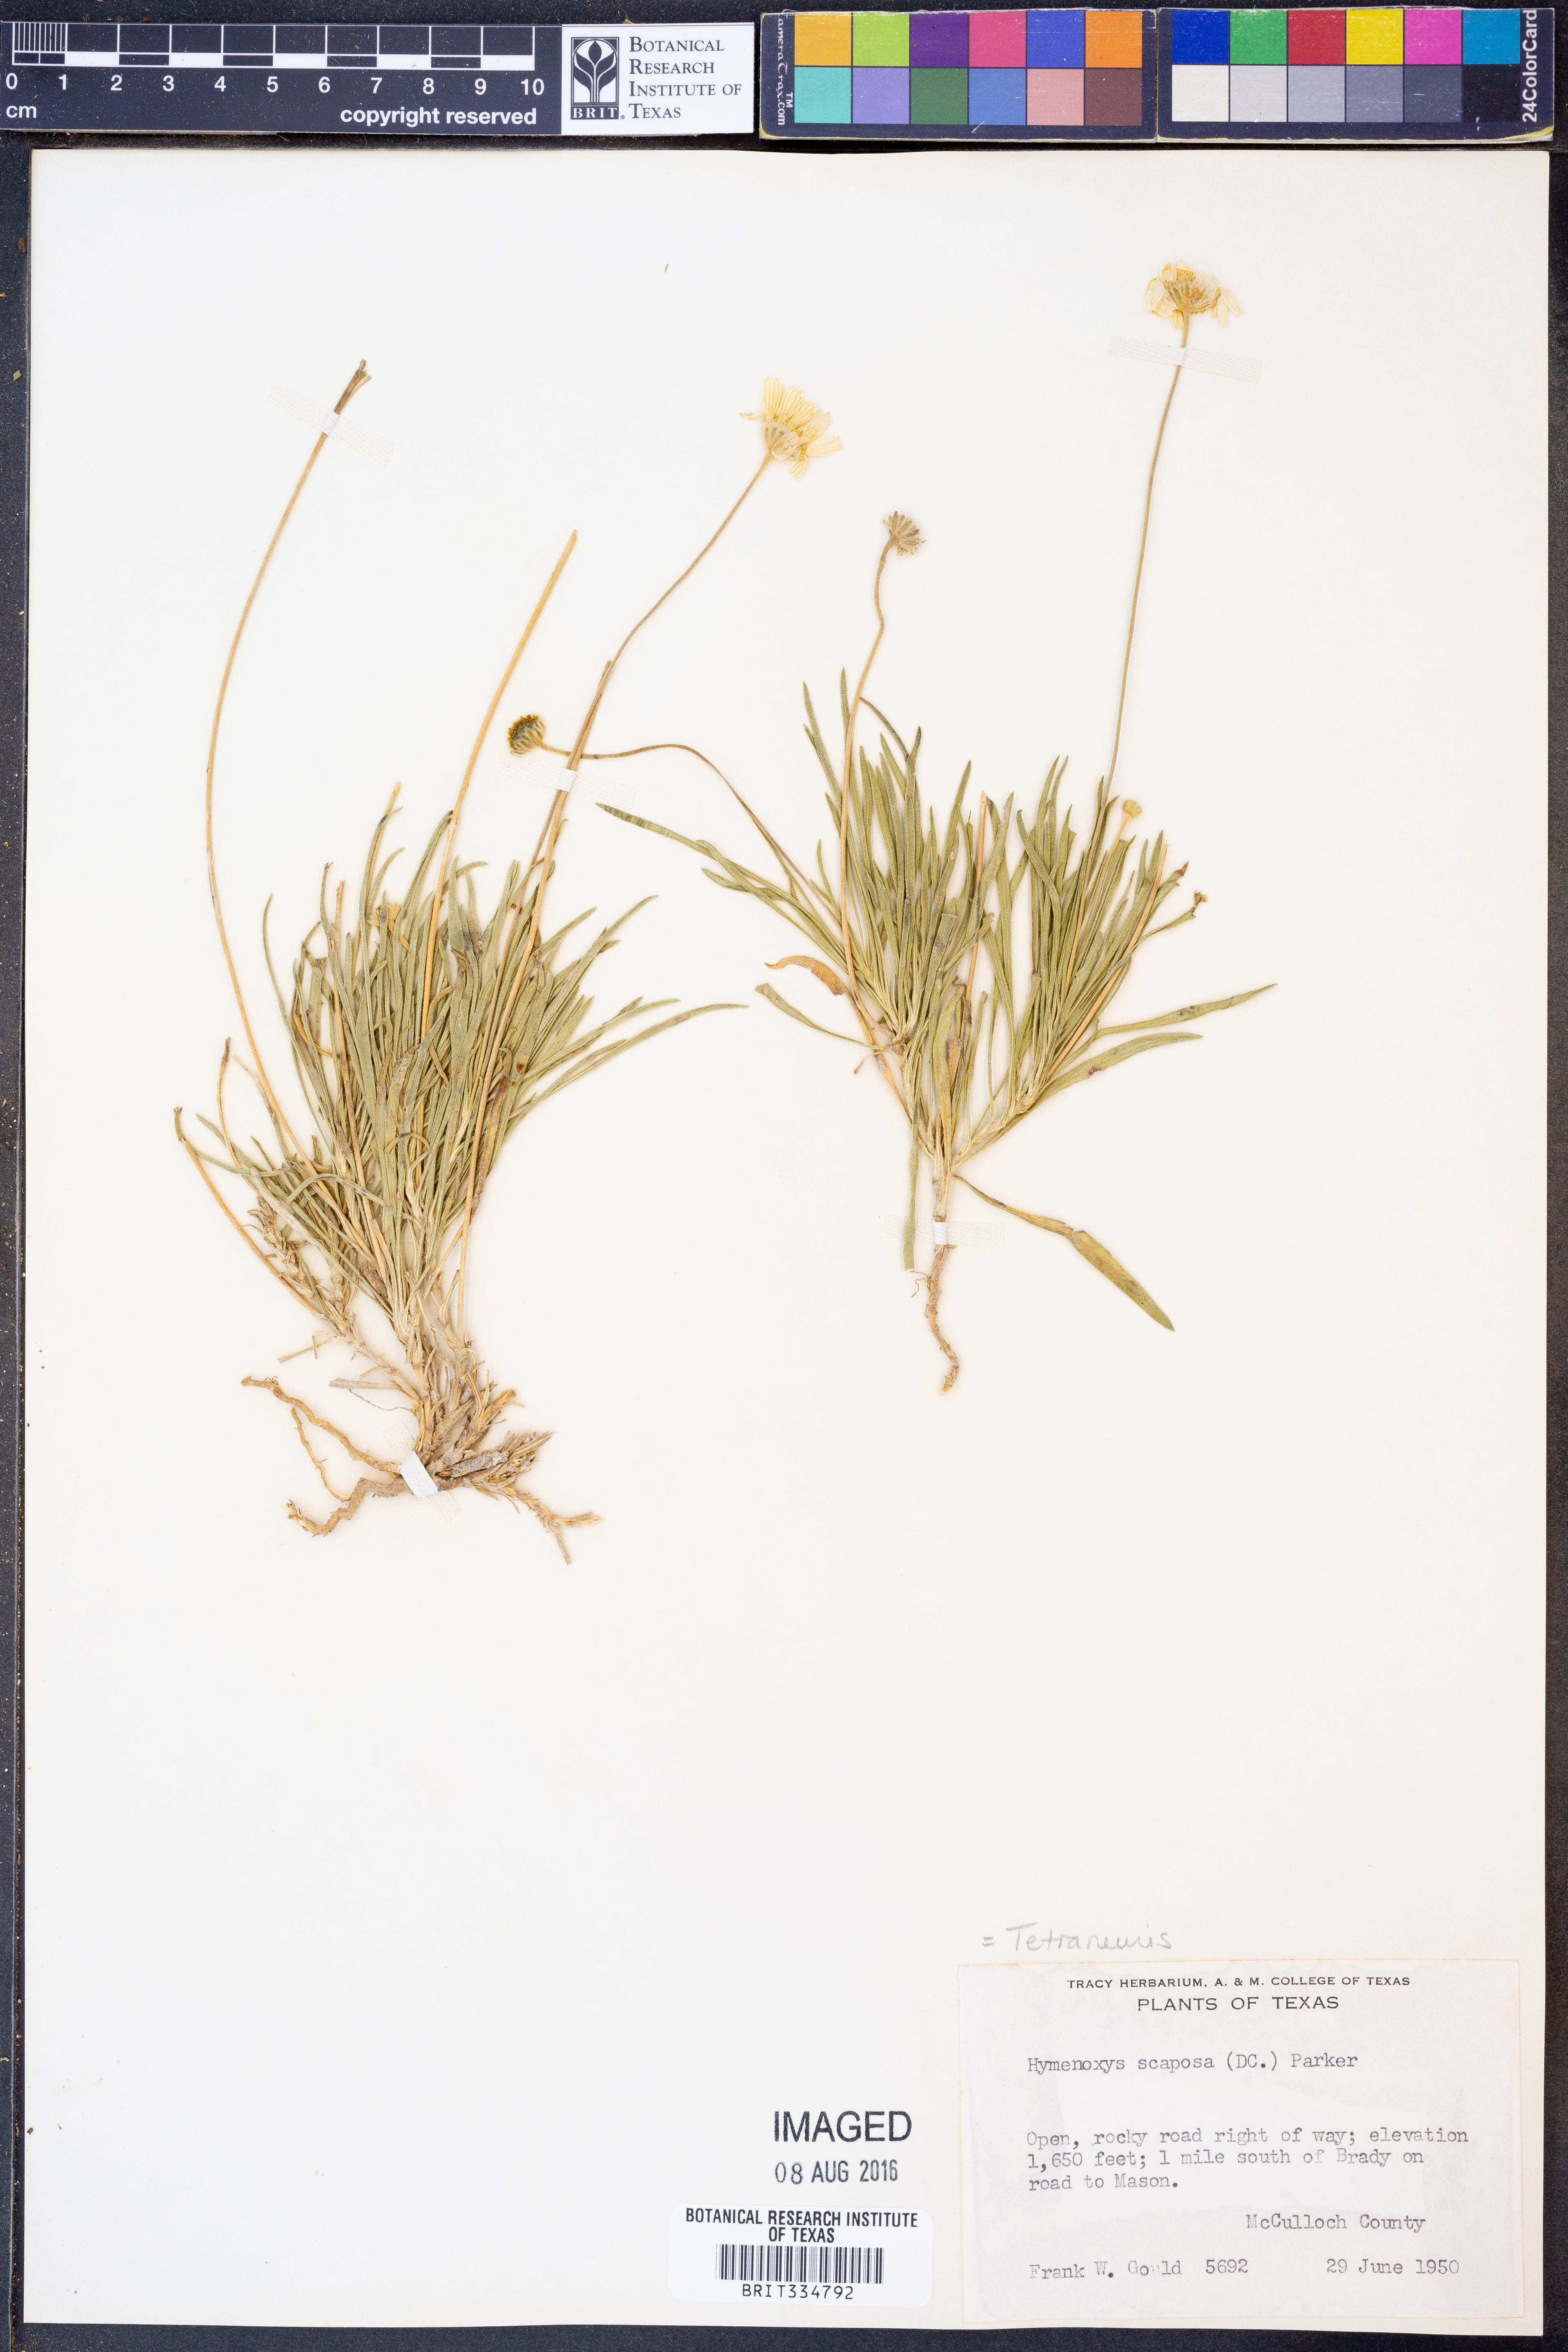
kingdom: Plantae
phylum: Tracheophyta
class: Magnoliopsida
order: Asterales
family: Asteraceae
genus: Tetraneuris
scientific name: Tetraneuris scaposa
